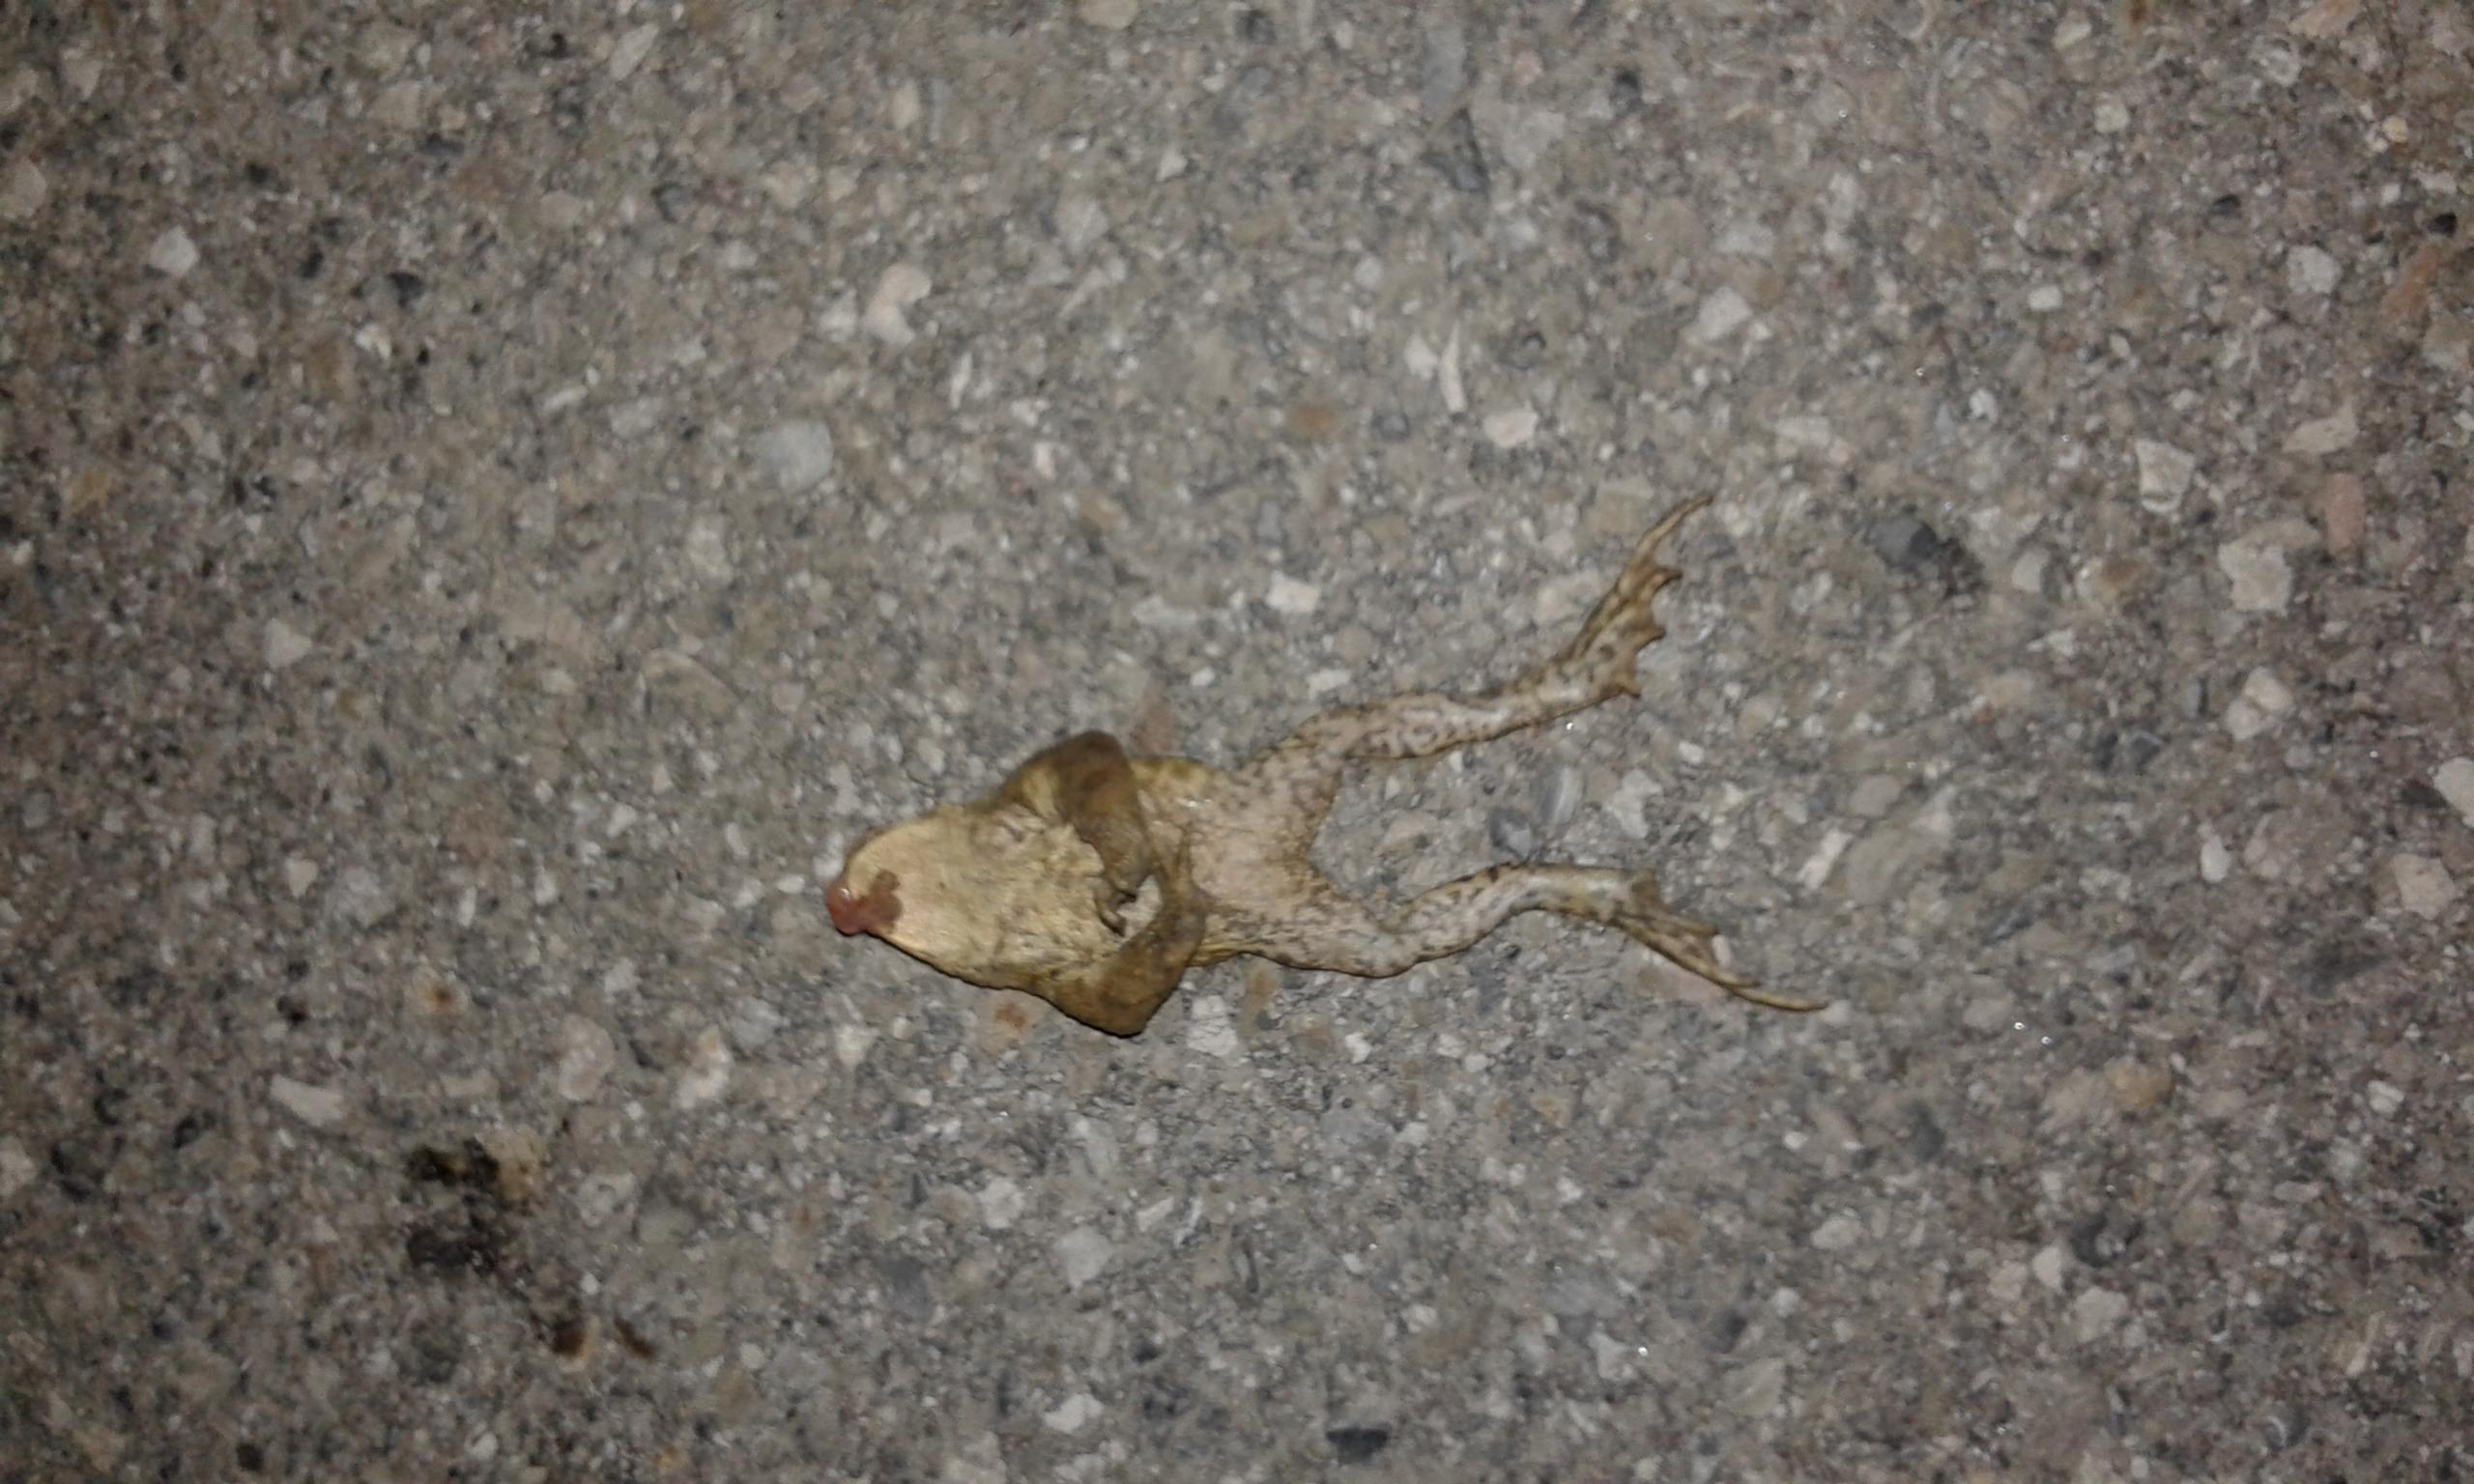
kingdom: Animalia
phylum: Chordata
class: Amphibia
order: Anura
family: Bufonidae
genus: Bufo
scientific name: Bufo bufo
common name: Common toad
